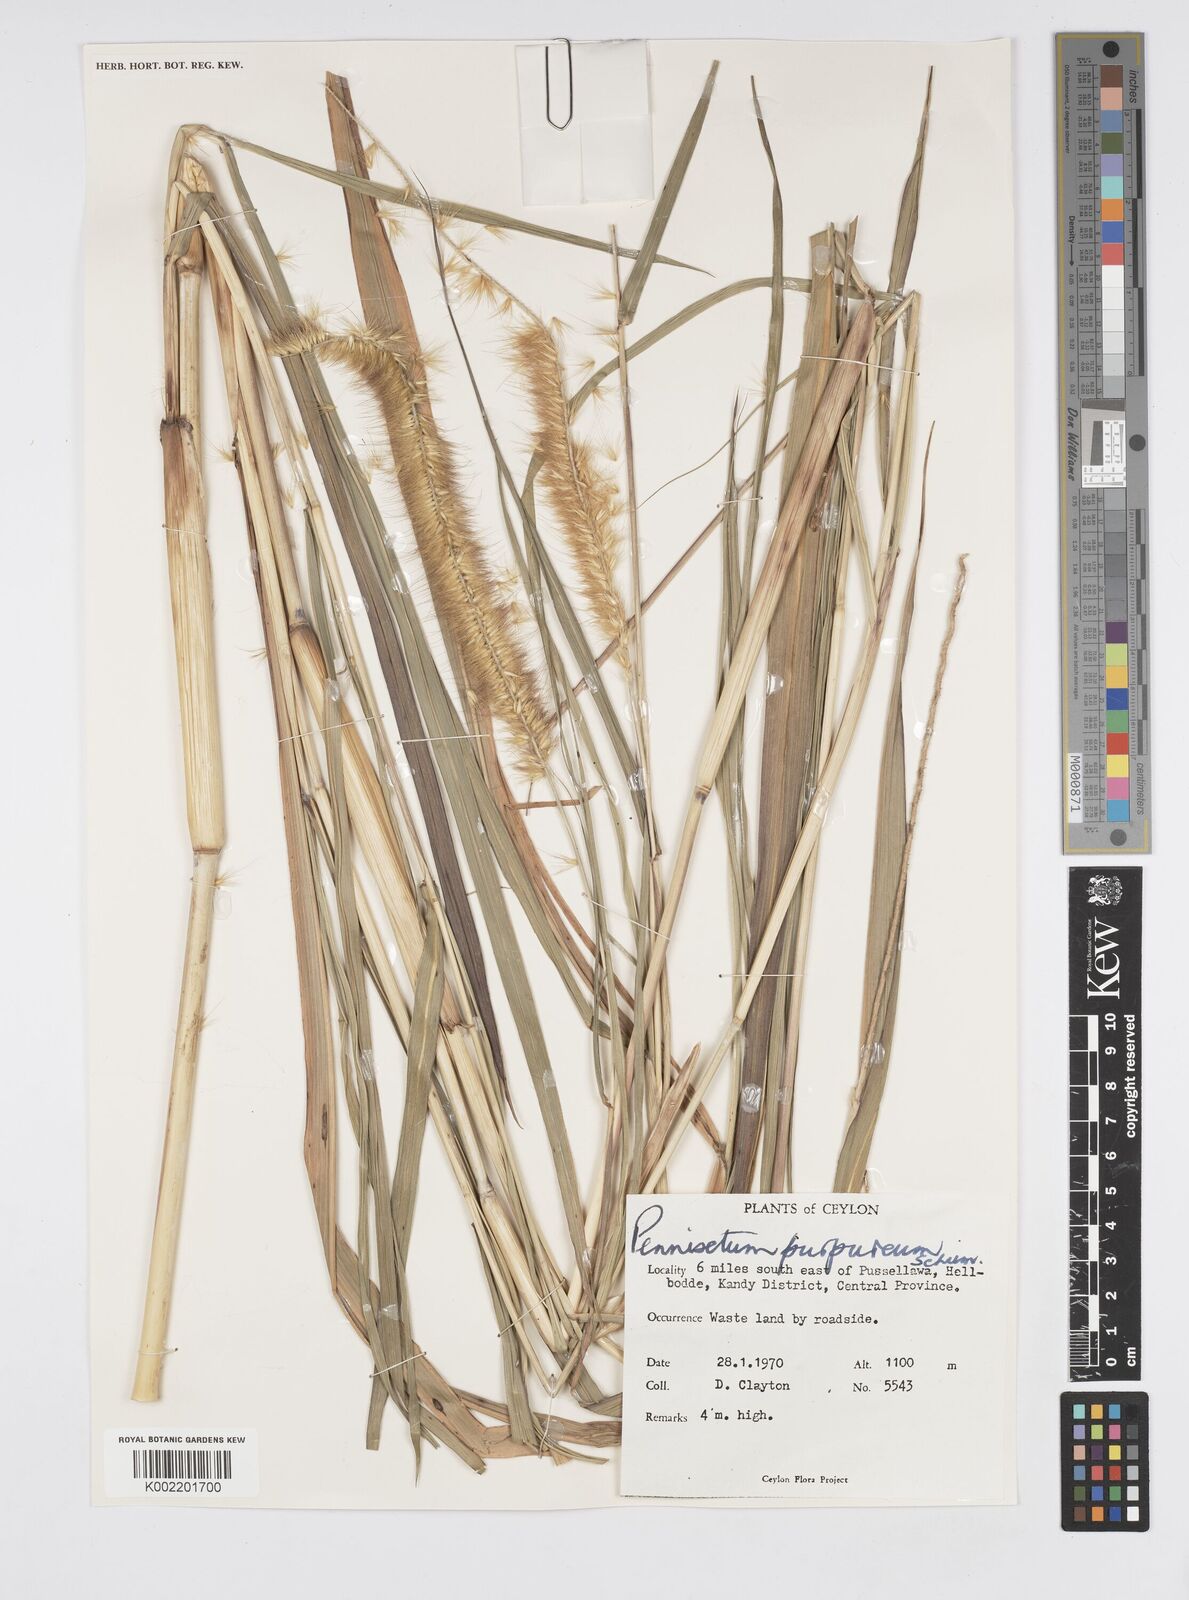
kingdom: Plantae
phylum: Tracheophyta
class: Liliopsida
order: Poales
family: Poaceae
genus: Cenchrus
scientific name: Cenchrus purpureus
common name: Elephant grass
